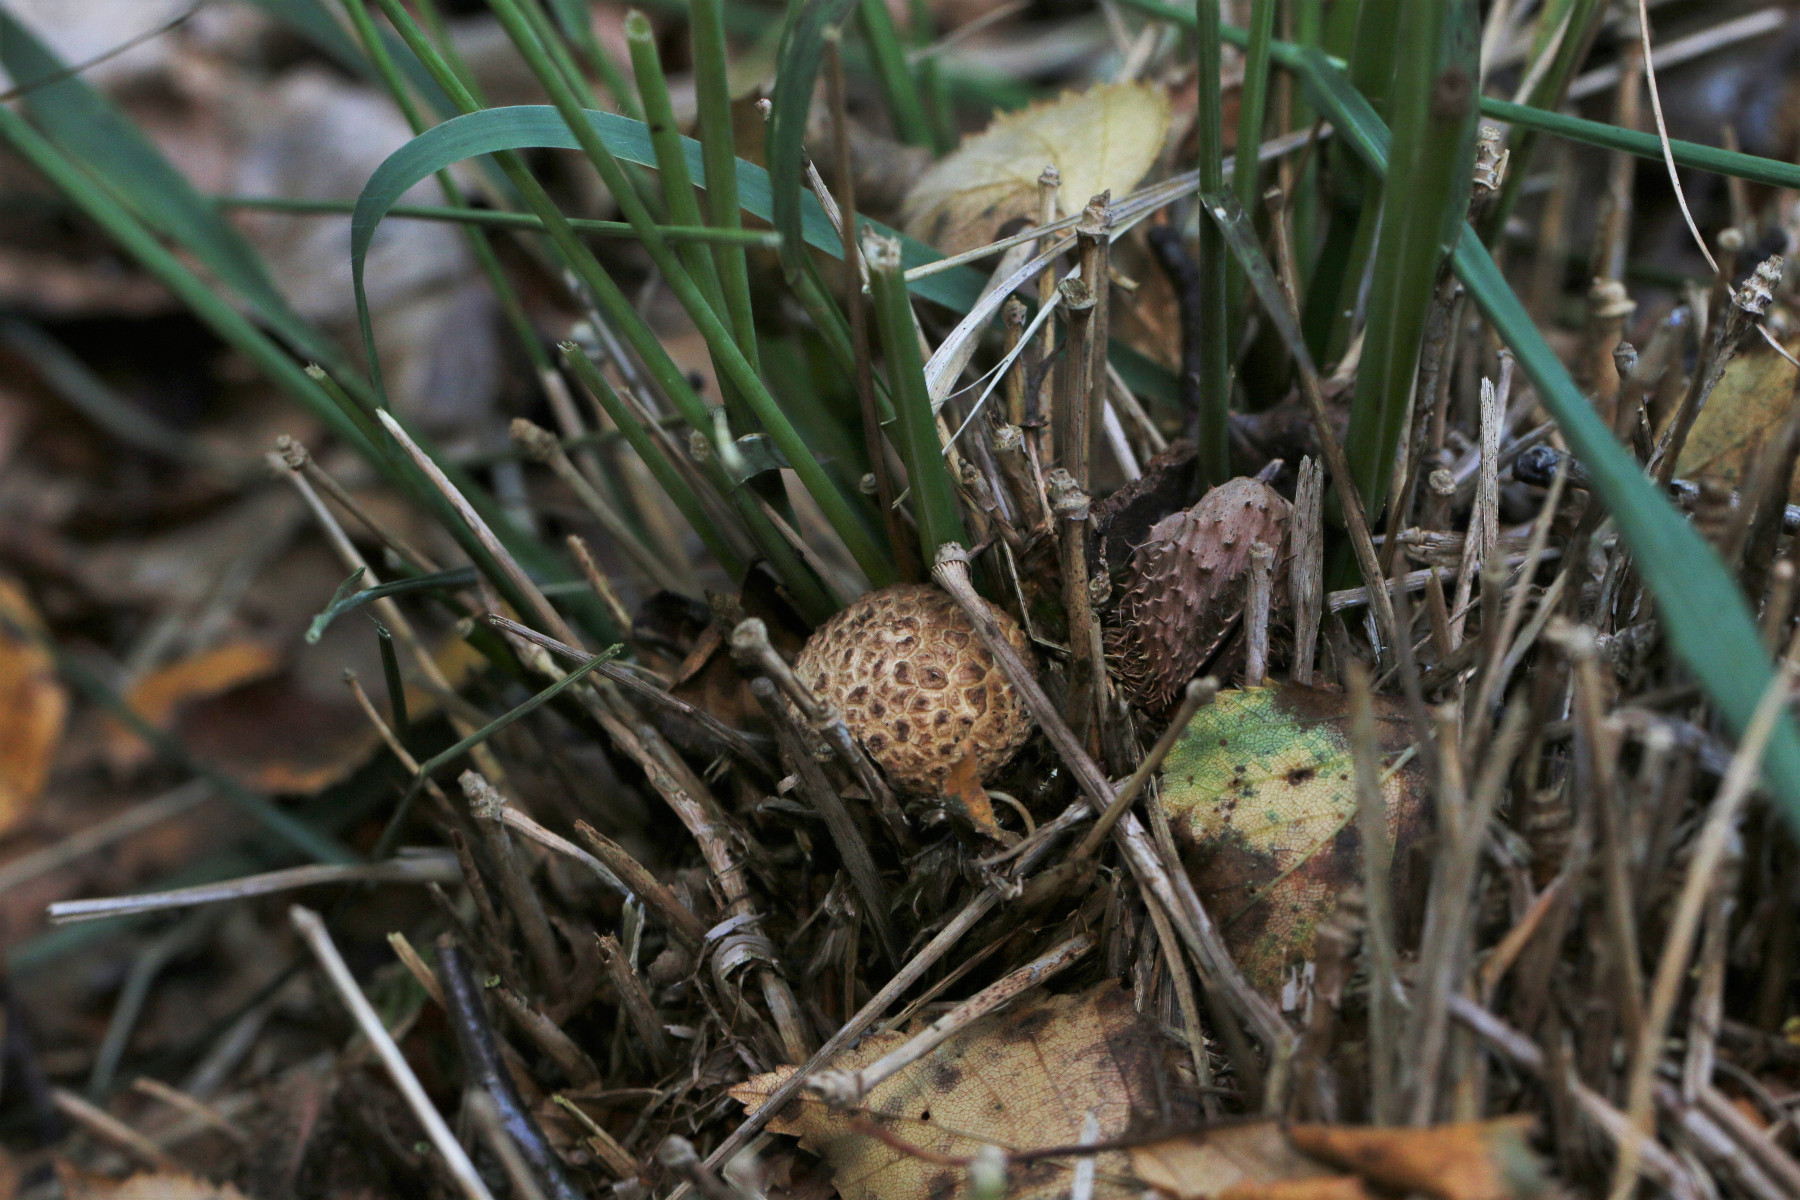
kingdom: Fungi
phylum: Basidiomycota
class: Agaricomycetes
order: Boletales
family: Sclerodermataceae
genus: Scleroderma
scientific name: Scleroderma citrinum
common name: almindelig bruskbold
